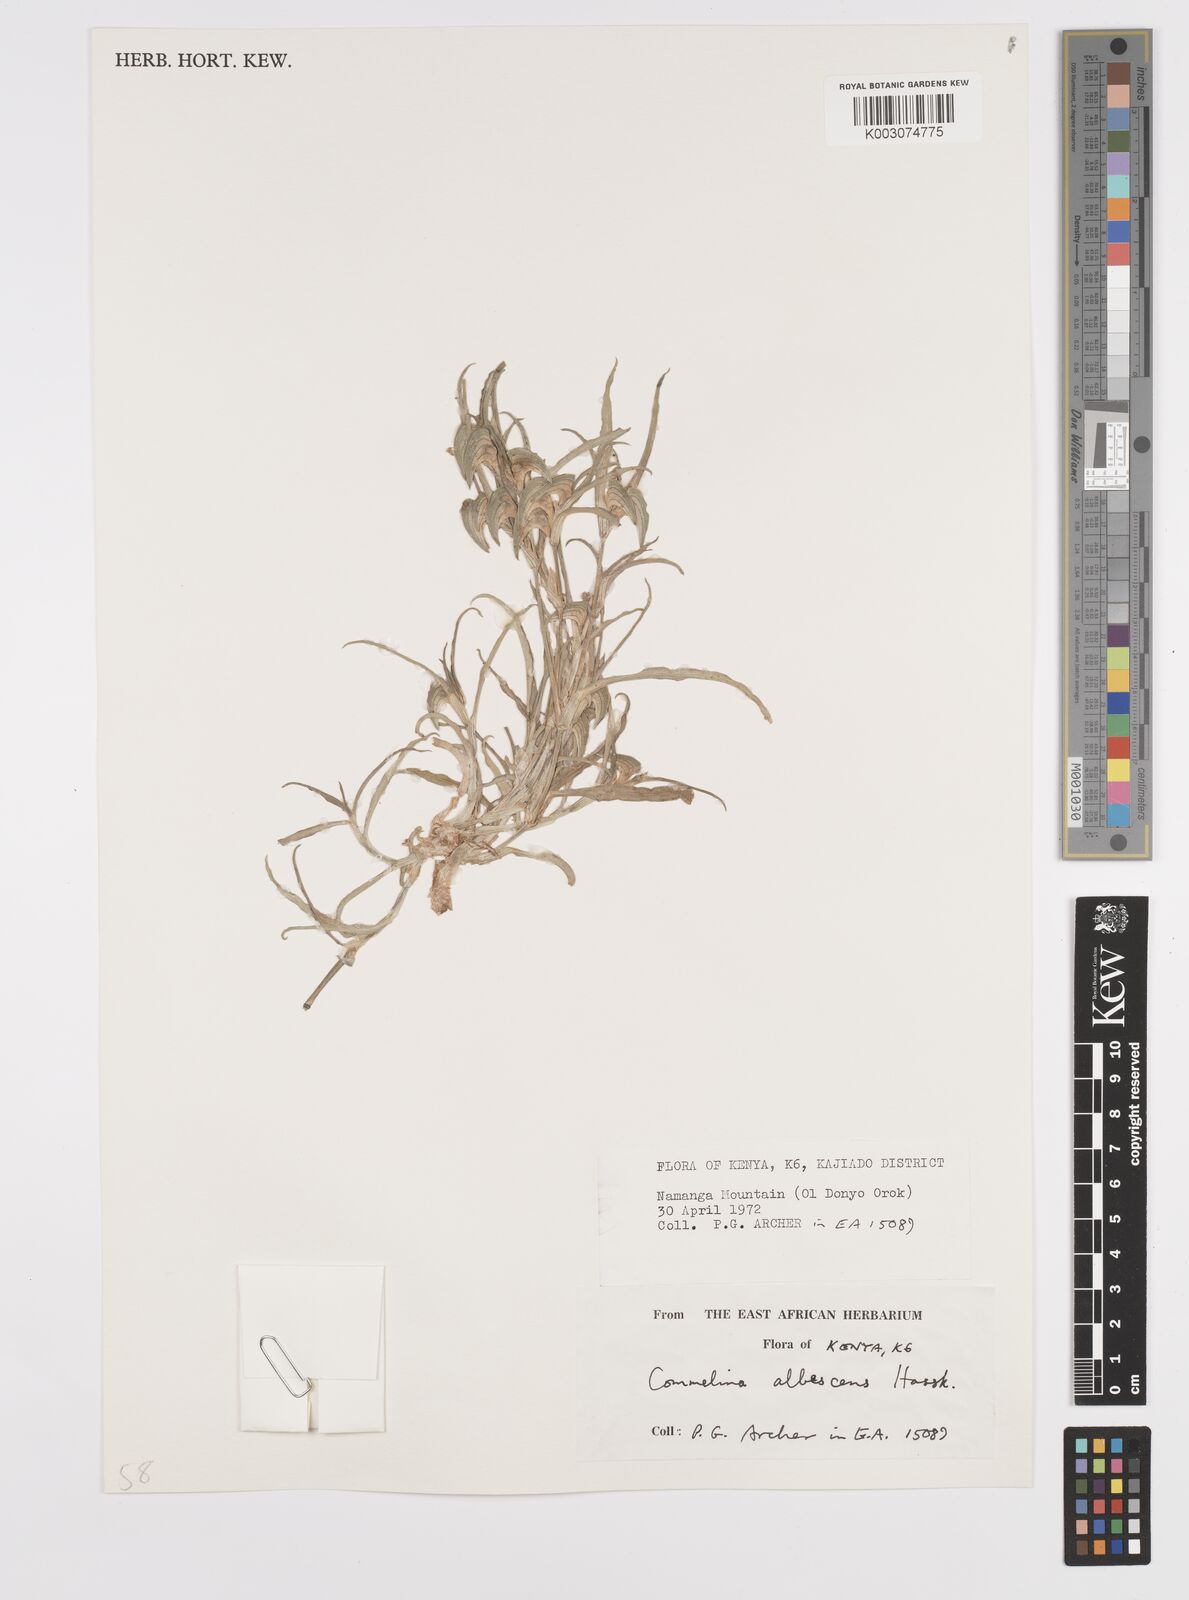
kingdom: Plantae
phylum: Tracheophyta
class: Liliopsida
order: Commelinales
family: Commelinaceae
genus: Commelina
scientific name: Commelina albescens
